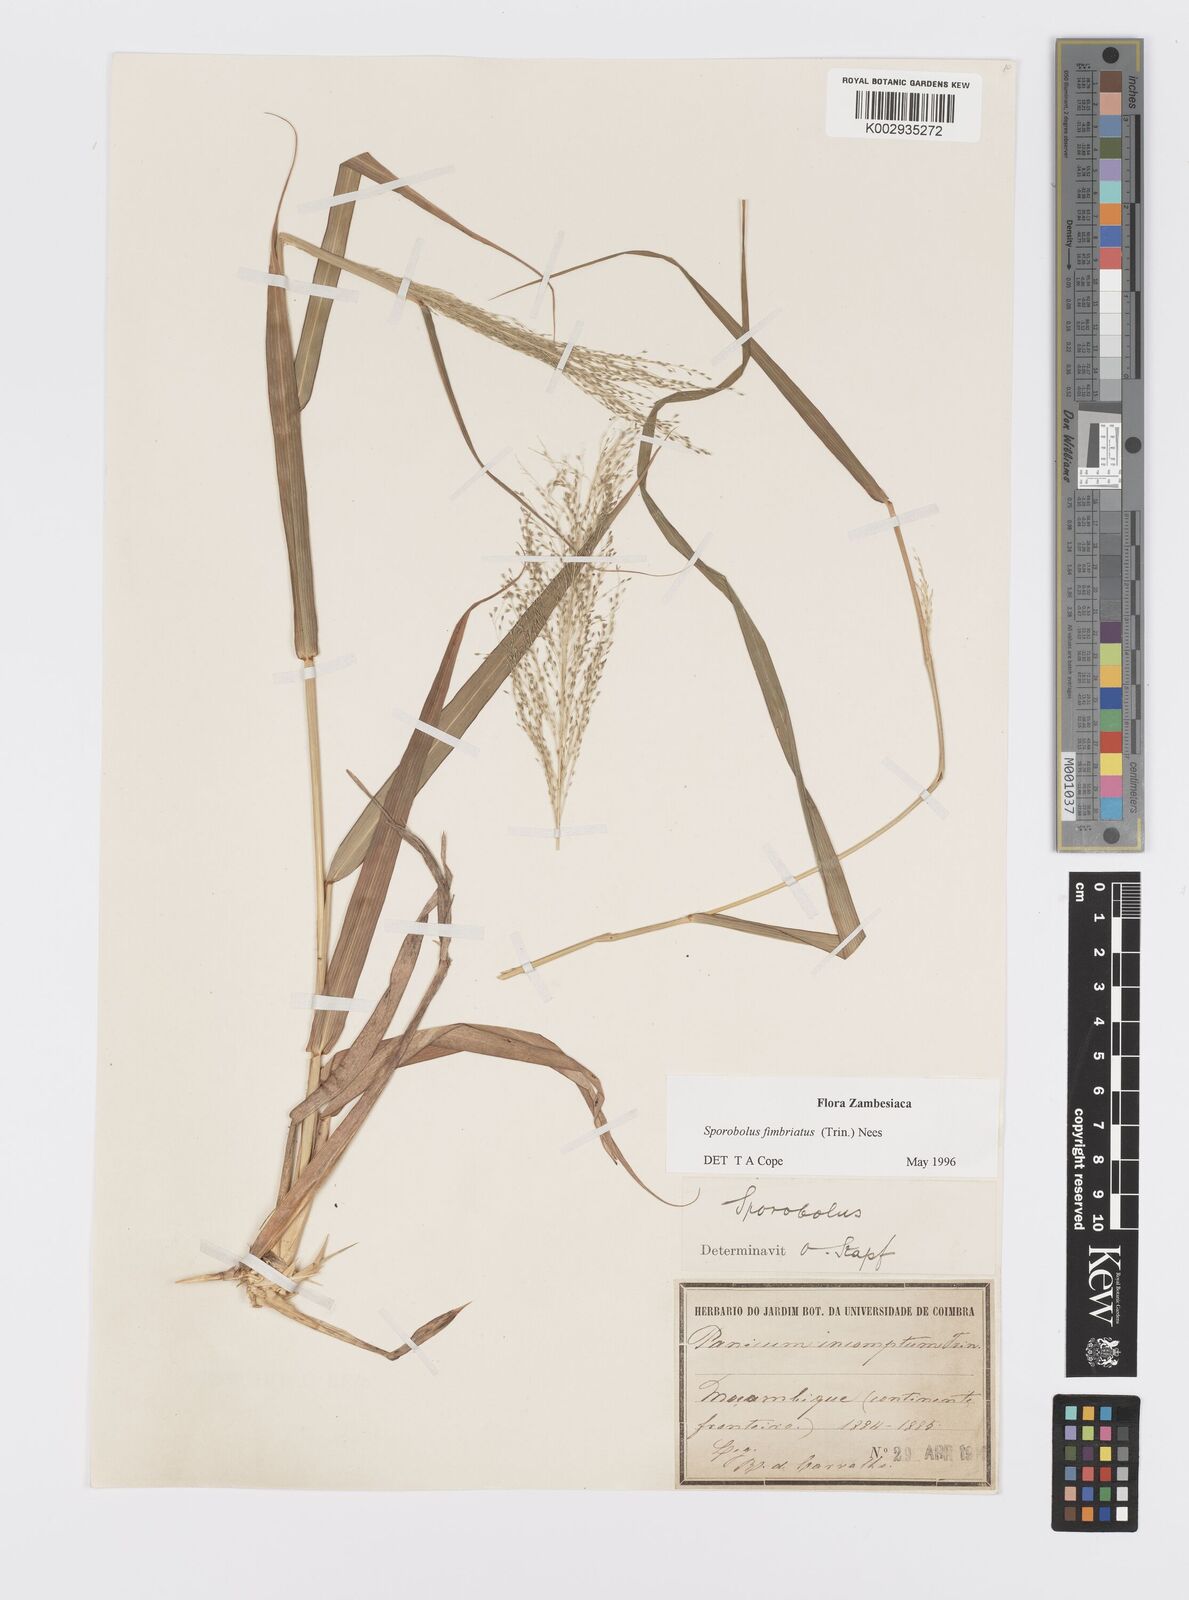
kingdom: Plantae
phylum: Tracheophyta
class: Liliopsida
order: Poales
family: Poaceae
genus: Sporobolus
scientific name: Sporobolus fimbriatus
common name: Fringed dropseed
